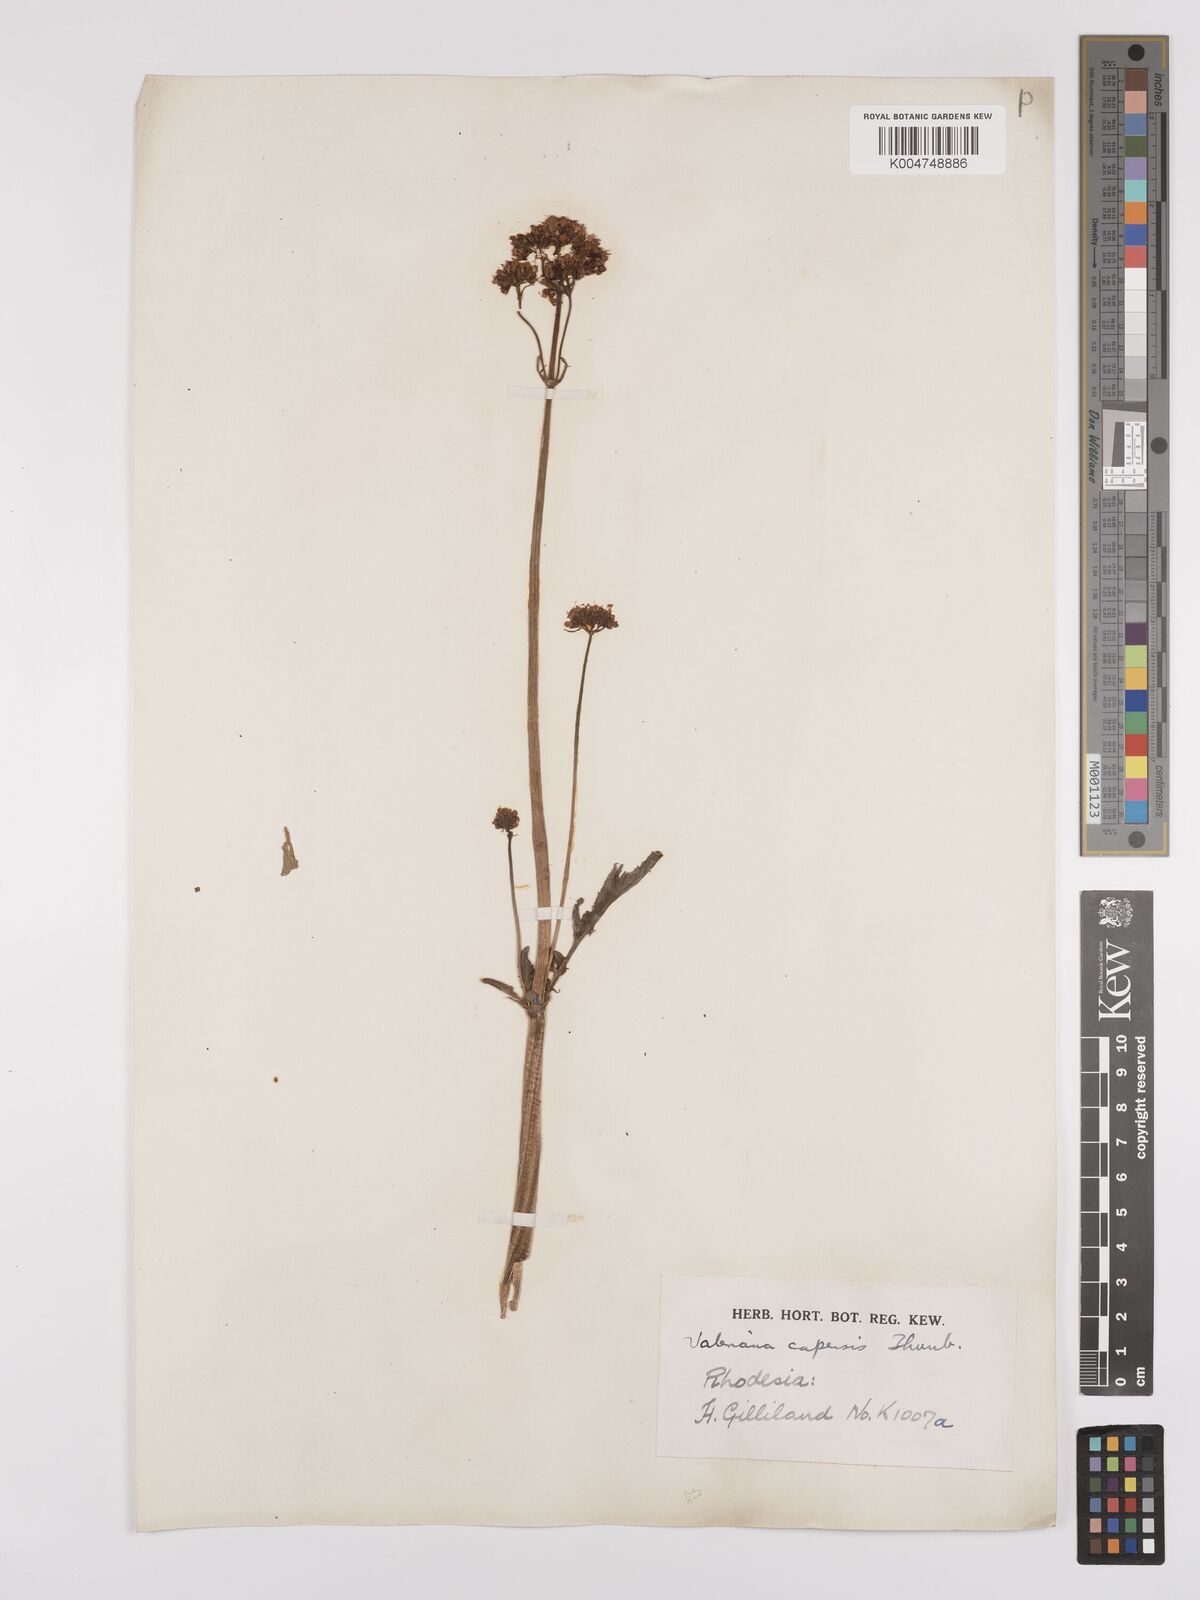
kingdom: Plantae
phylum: Tracheophyta
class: Magnoliopsida
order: Dipsacales
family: Caprifoliaceae
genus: Valeriana
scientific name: Valeriana capensis
